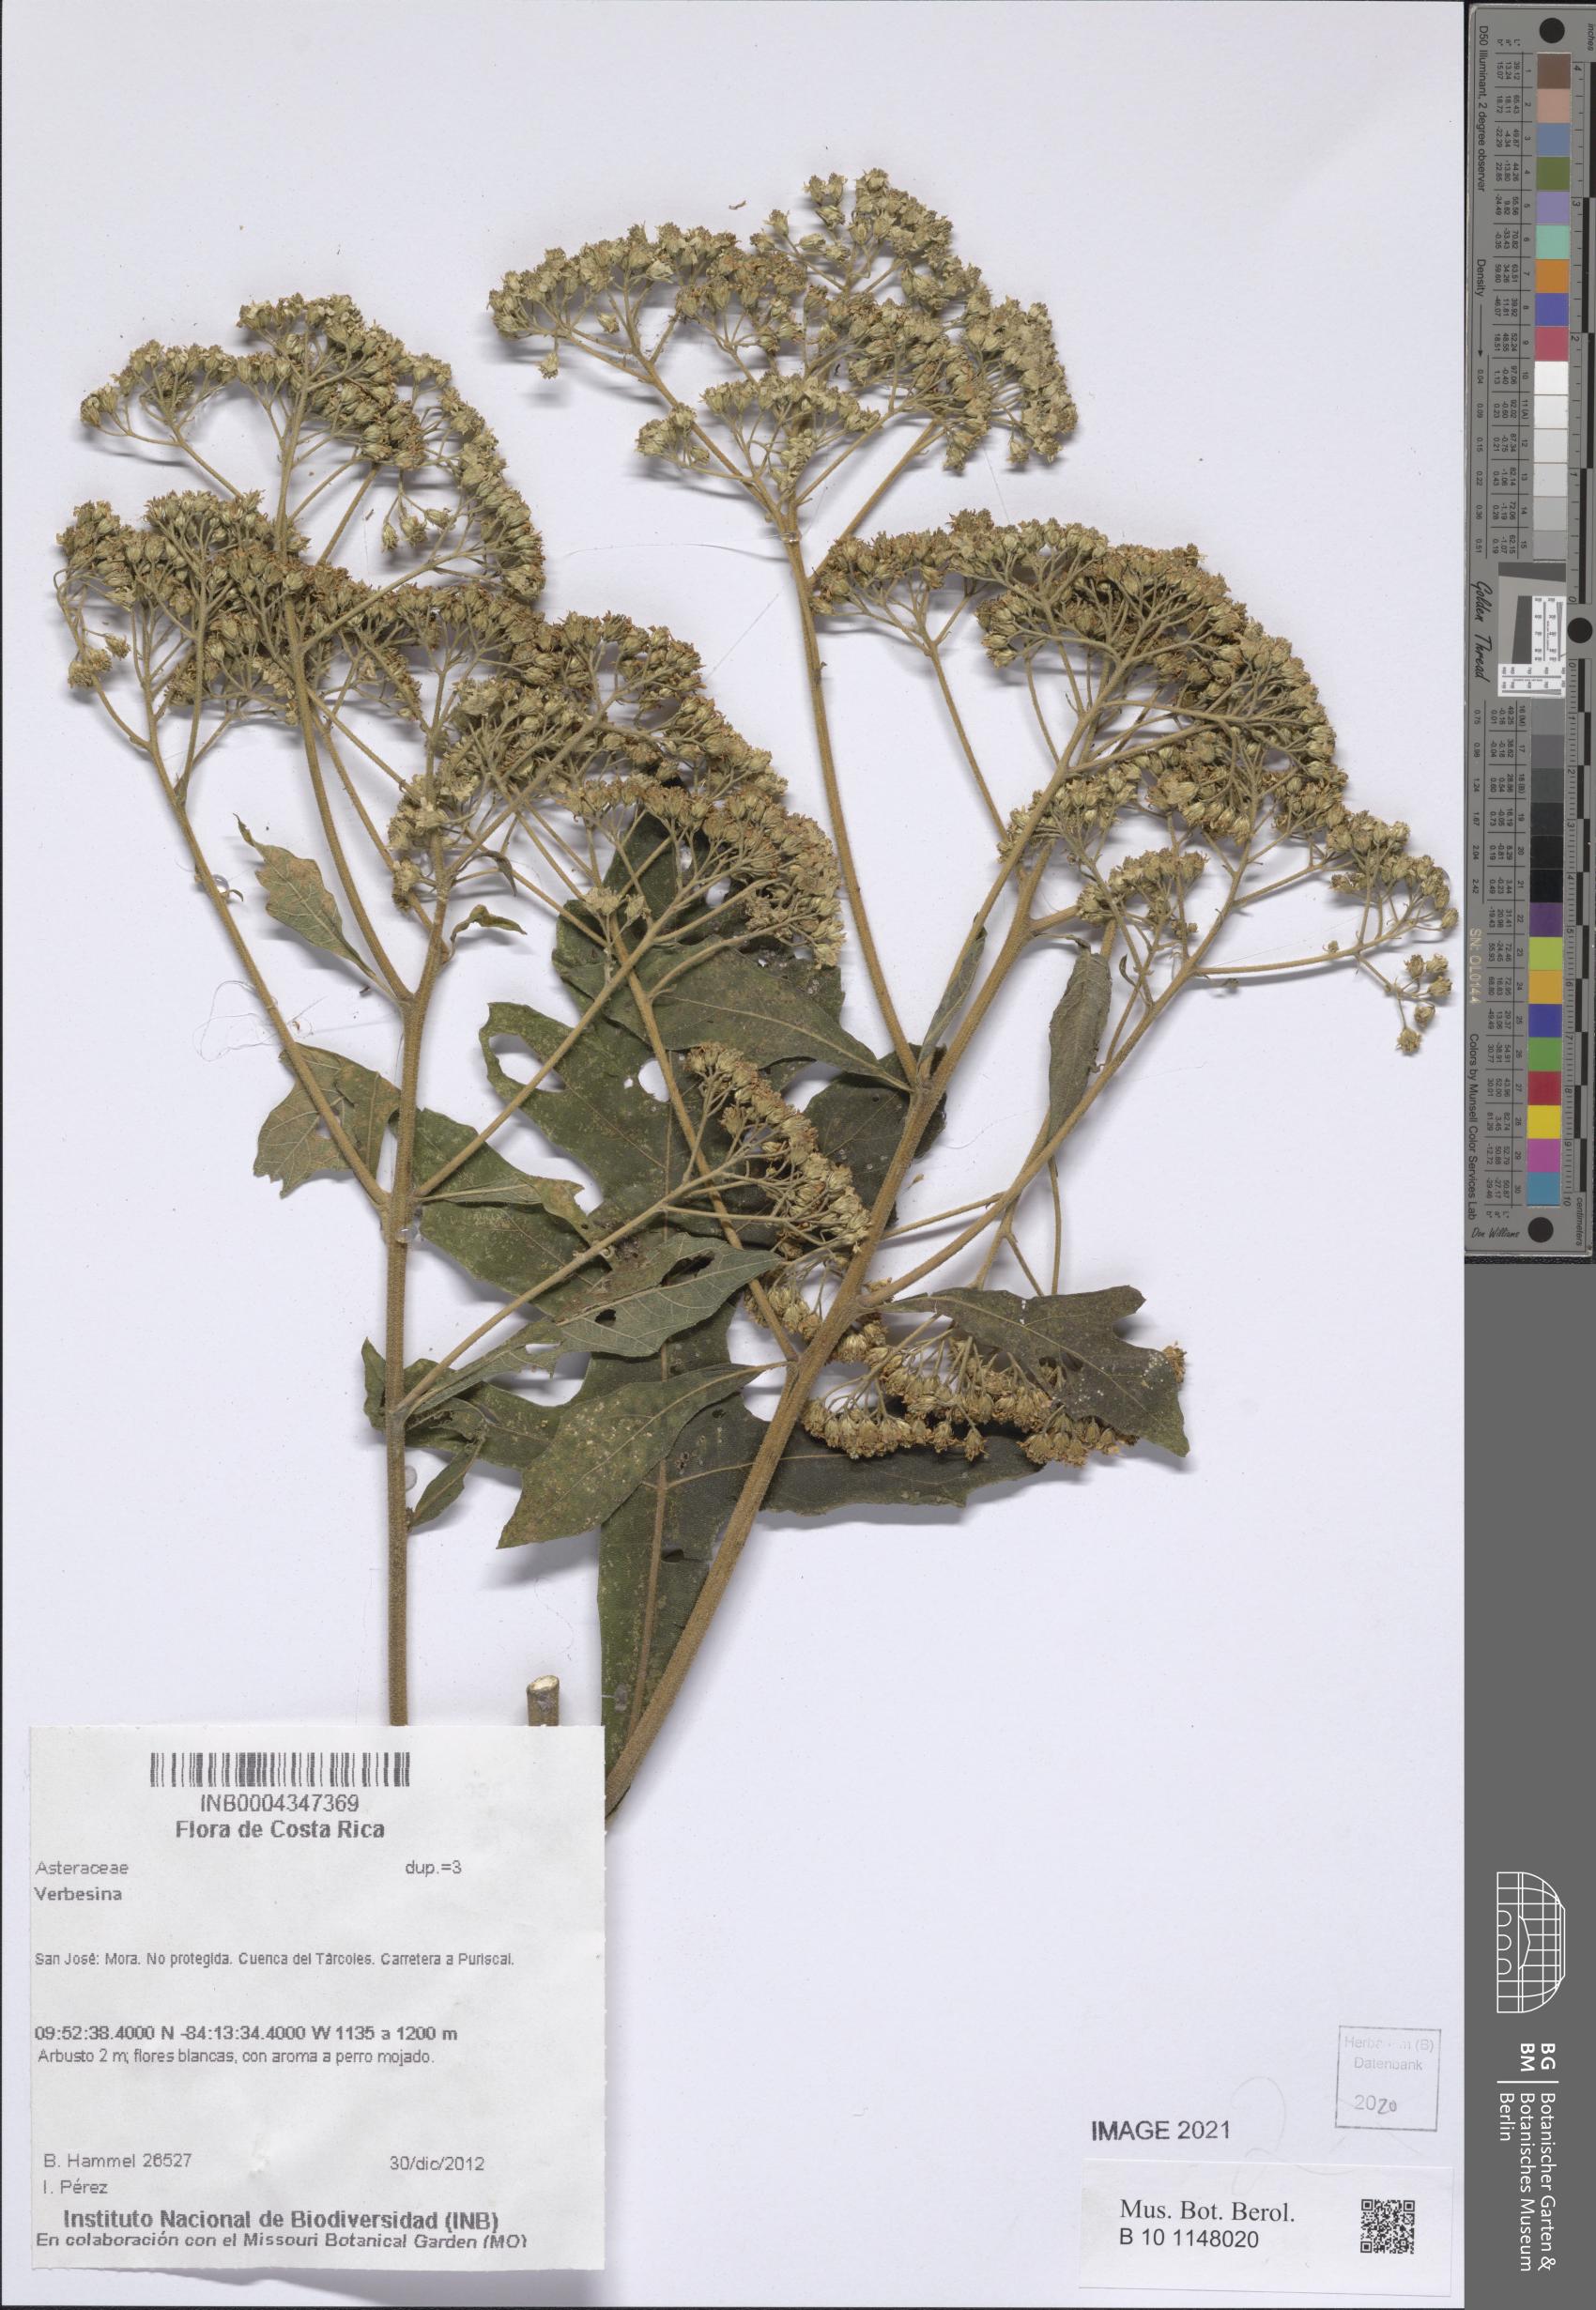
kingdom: Plantae
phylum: Tracheophyta
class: Magnoliopsida
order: Asterales
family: Asteraceae
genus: Verbesina
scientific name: Verbesina
